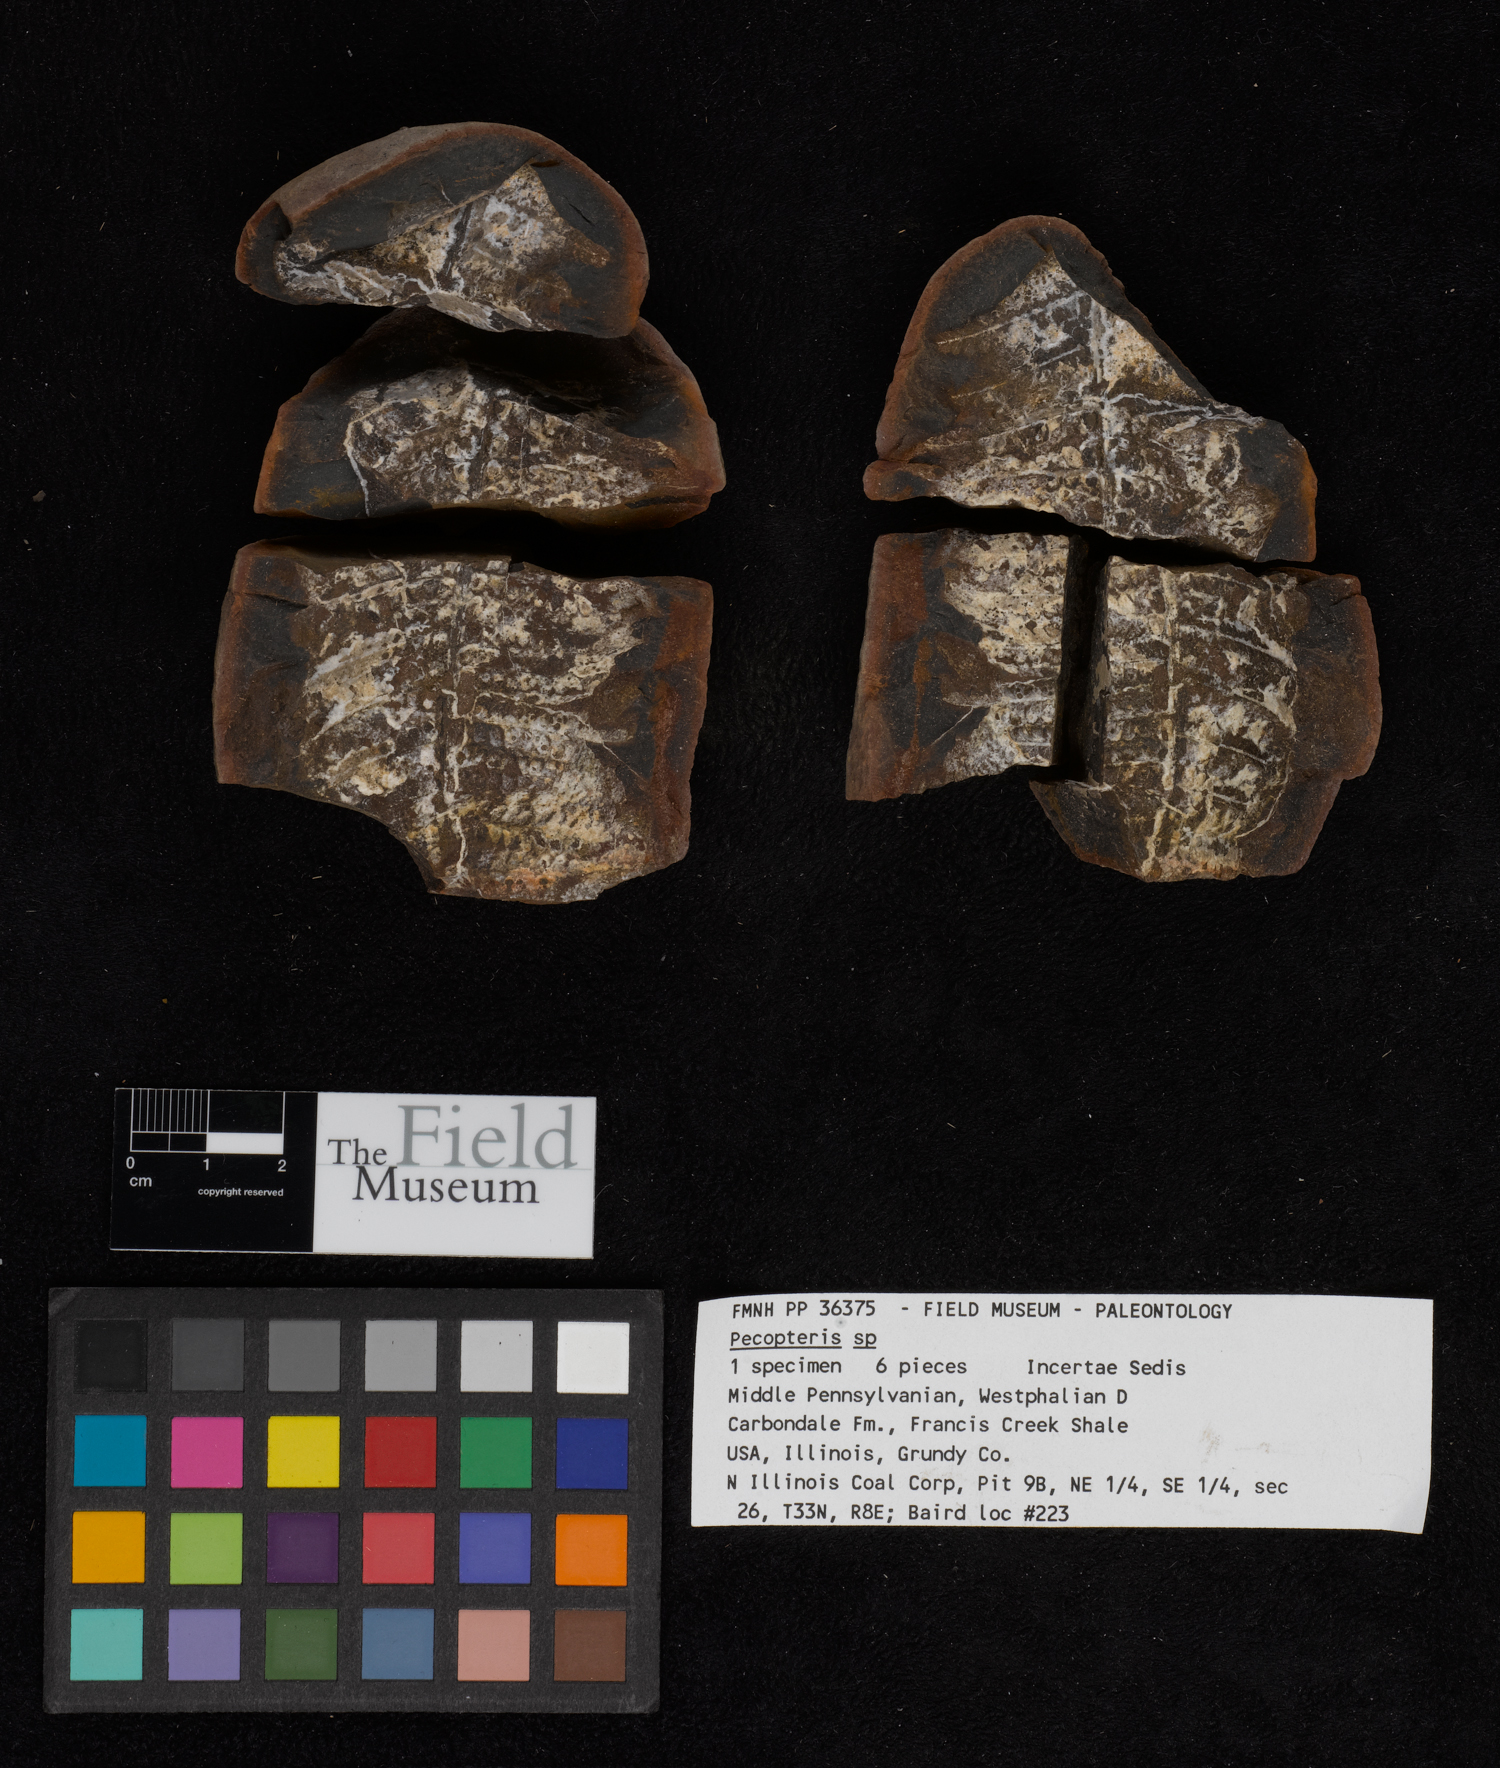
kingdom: Plantae
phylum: Tracheophyta
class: Polypodiopsida
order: Marattiales
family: Asterothecaceae
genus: Pecopteris
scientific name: Pecopteris
